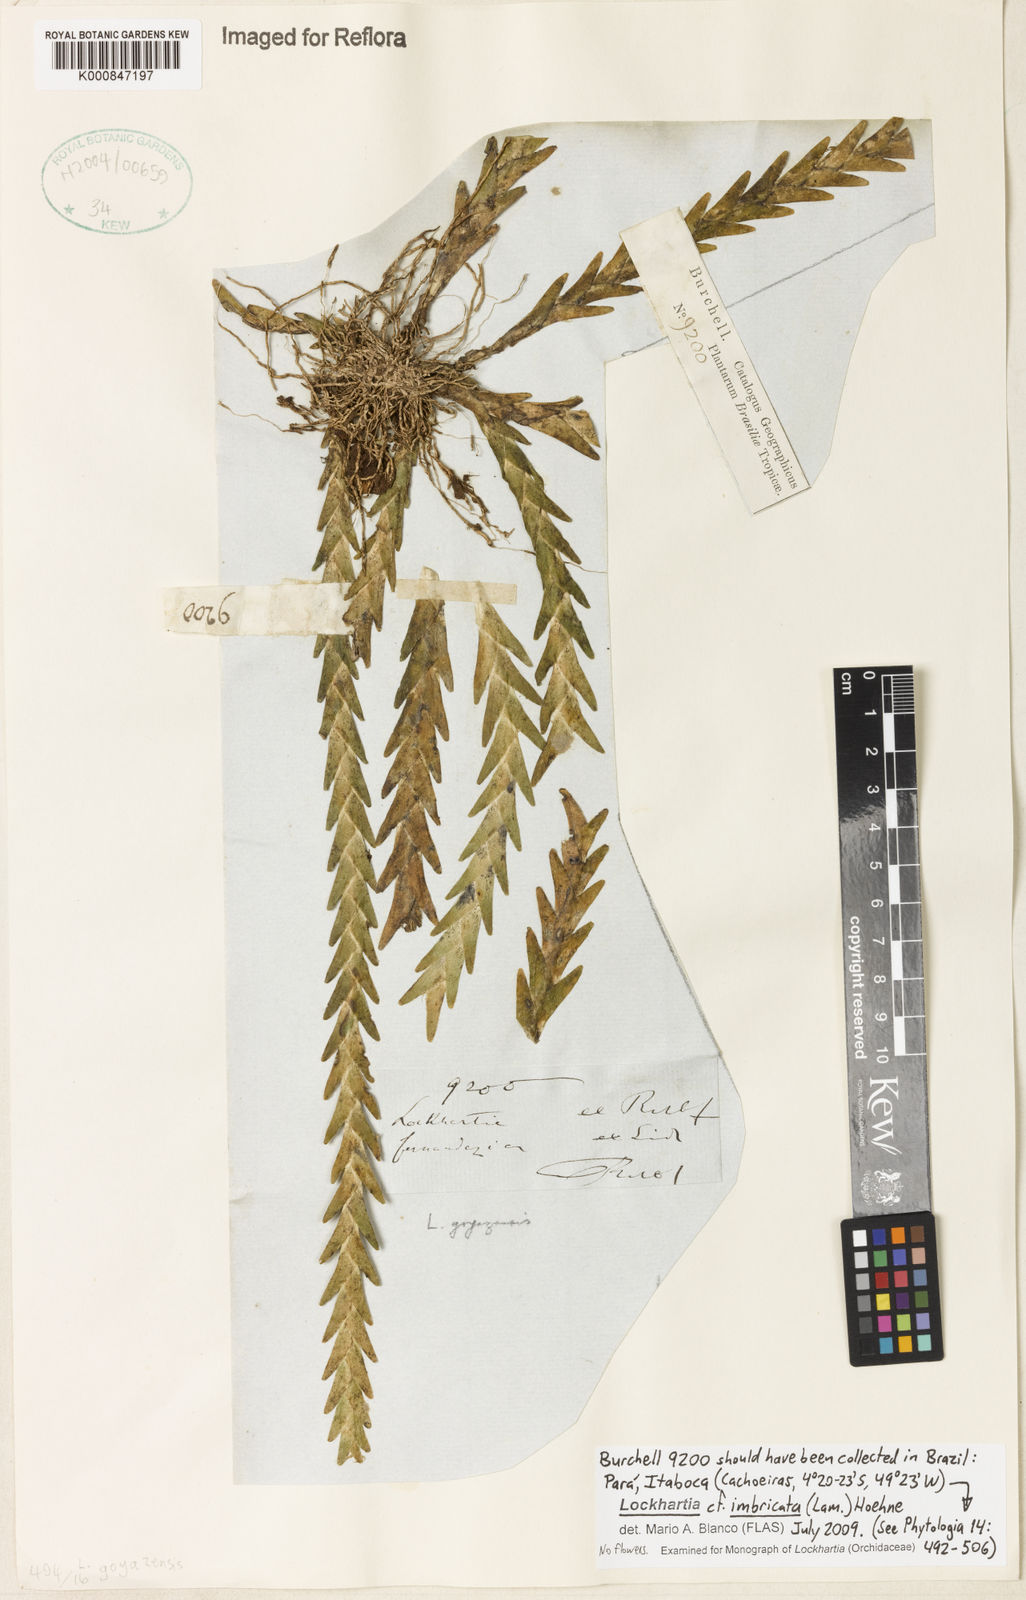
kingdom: Plantae
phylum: Tracheophyta
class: Liliopsida
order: Asparagales
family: Orchidaceae
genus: Lockhartia
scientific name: Lockhartia imbricata
